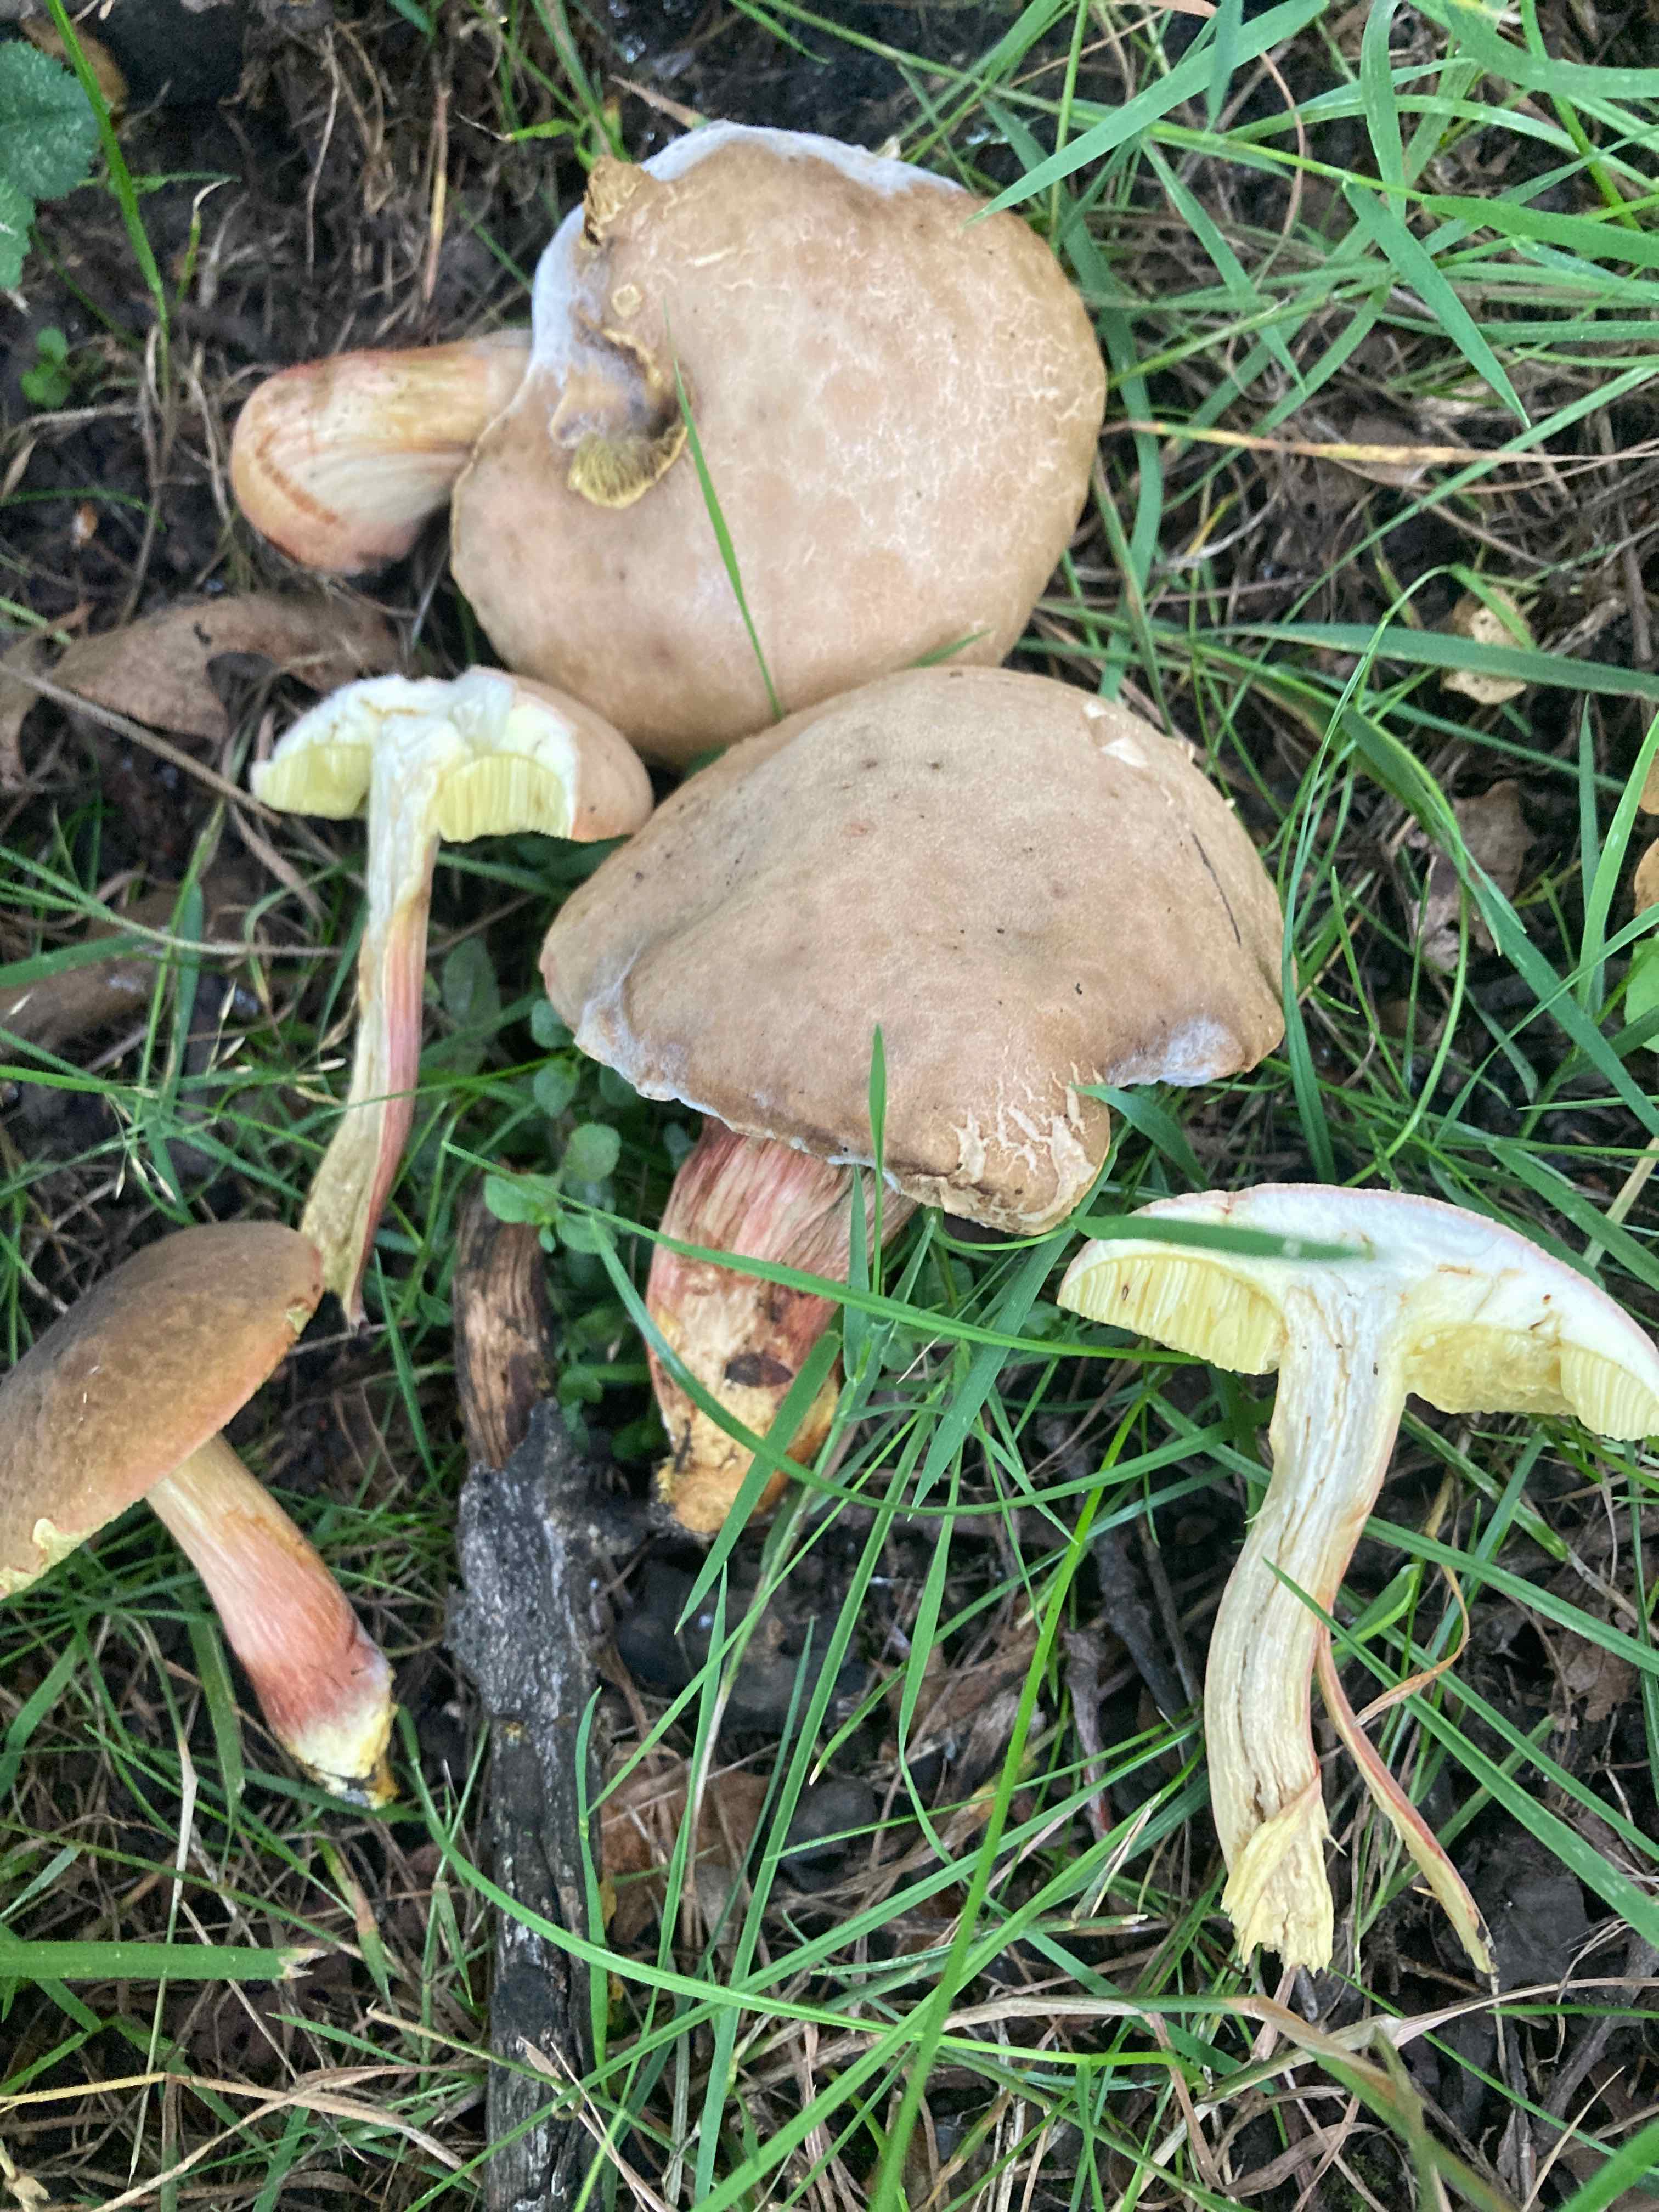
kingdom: Fungi
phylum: Basidiomycota
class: Agaricomycetes
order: Boletales
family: Boletaceae
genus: Hortiboletus
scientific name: Hortiboletus engelii
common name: fersken-rørhat
